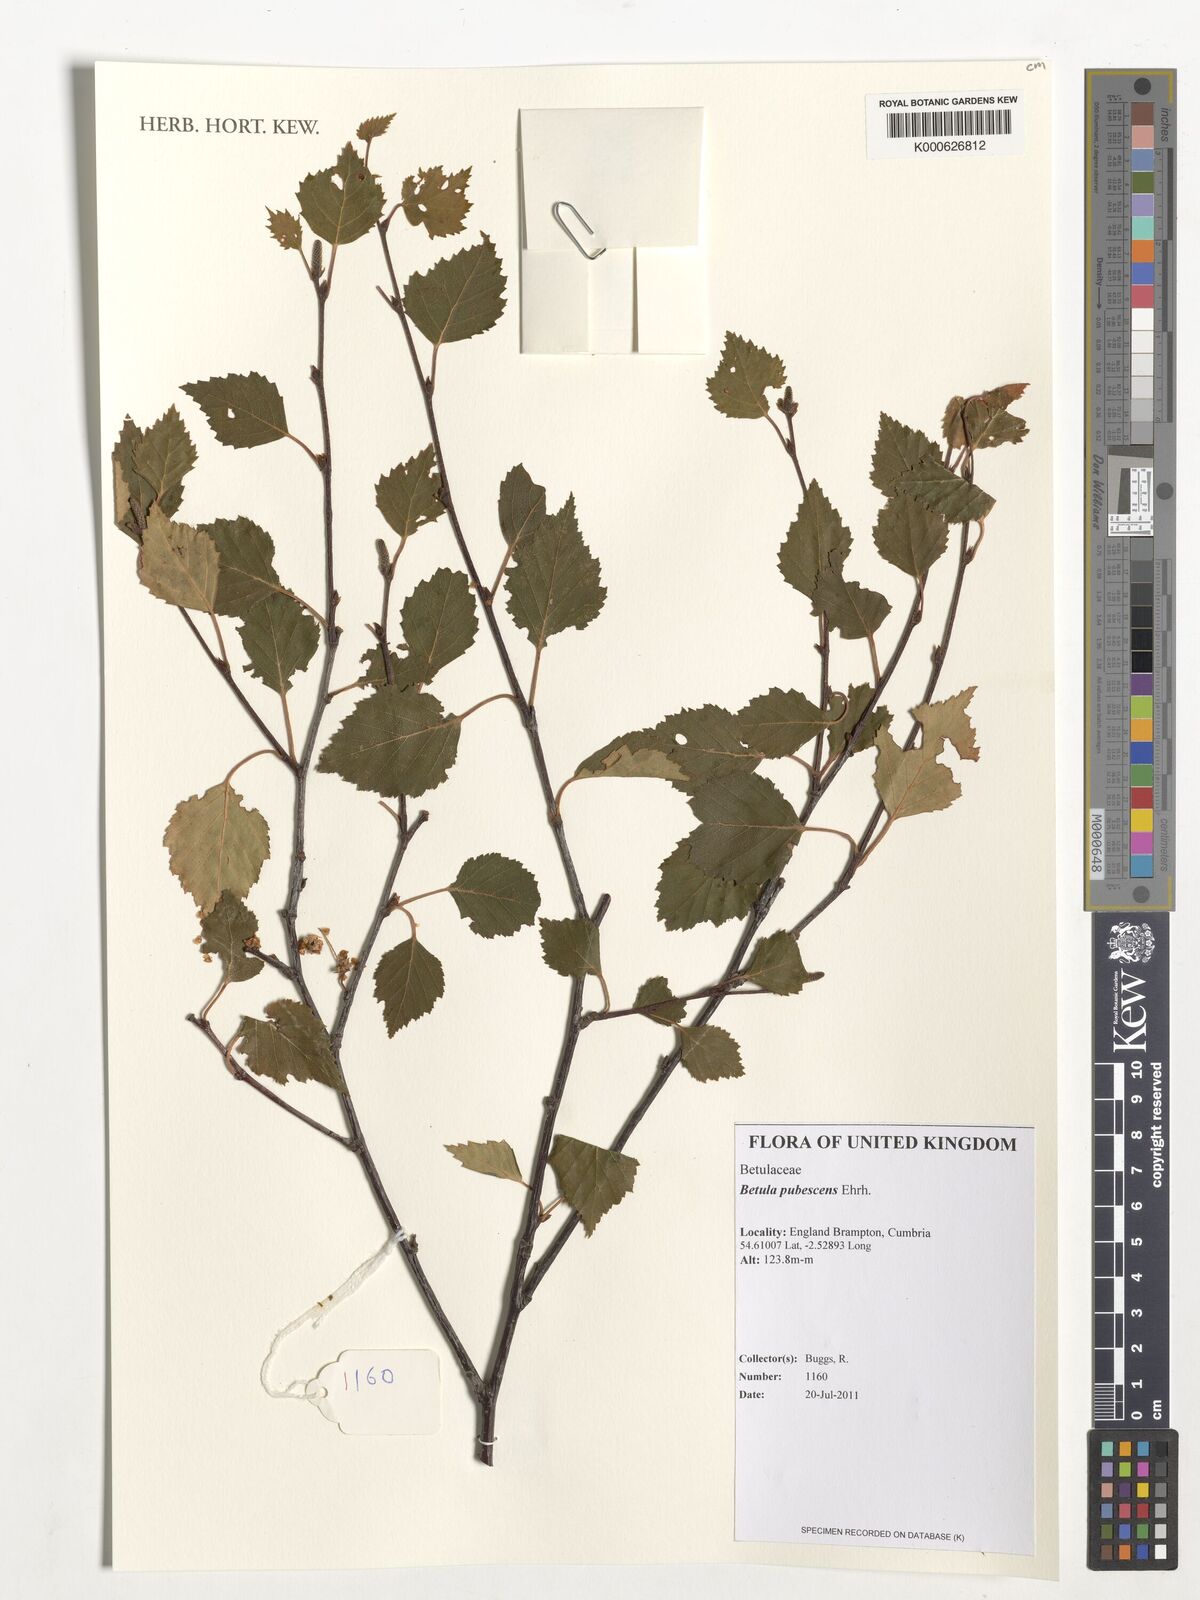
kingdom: Plantae
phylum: Tracheophyta
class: Magnoliopsida
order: Fagales
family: Betulaceae
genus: Betula
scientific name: Betula pubescens
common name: Downy birch
